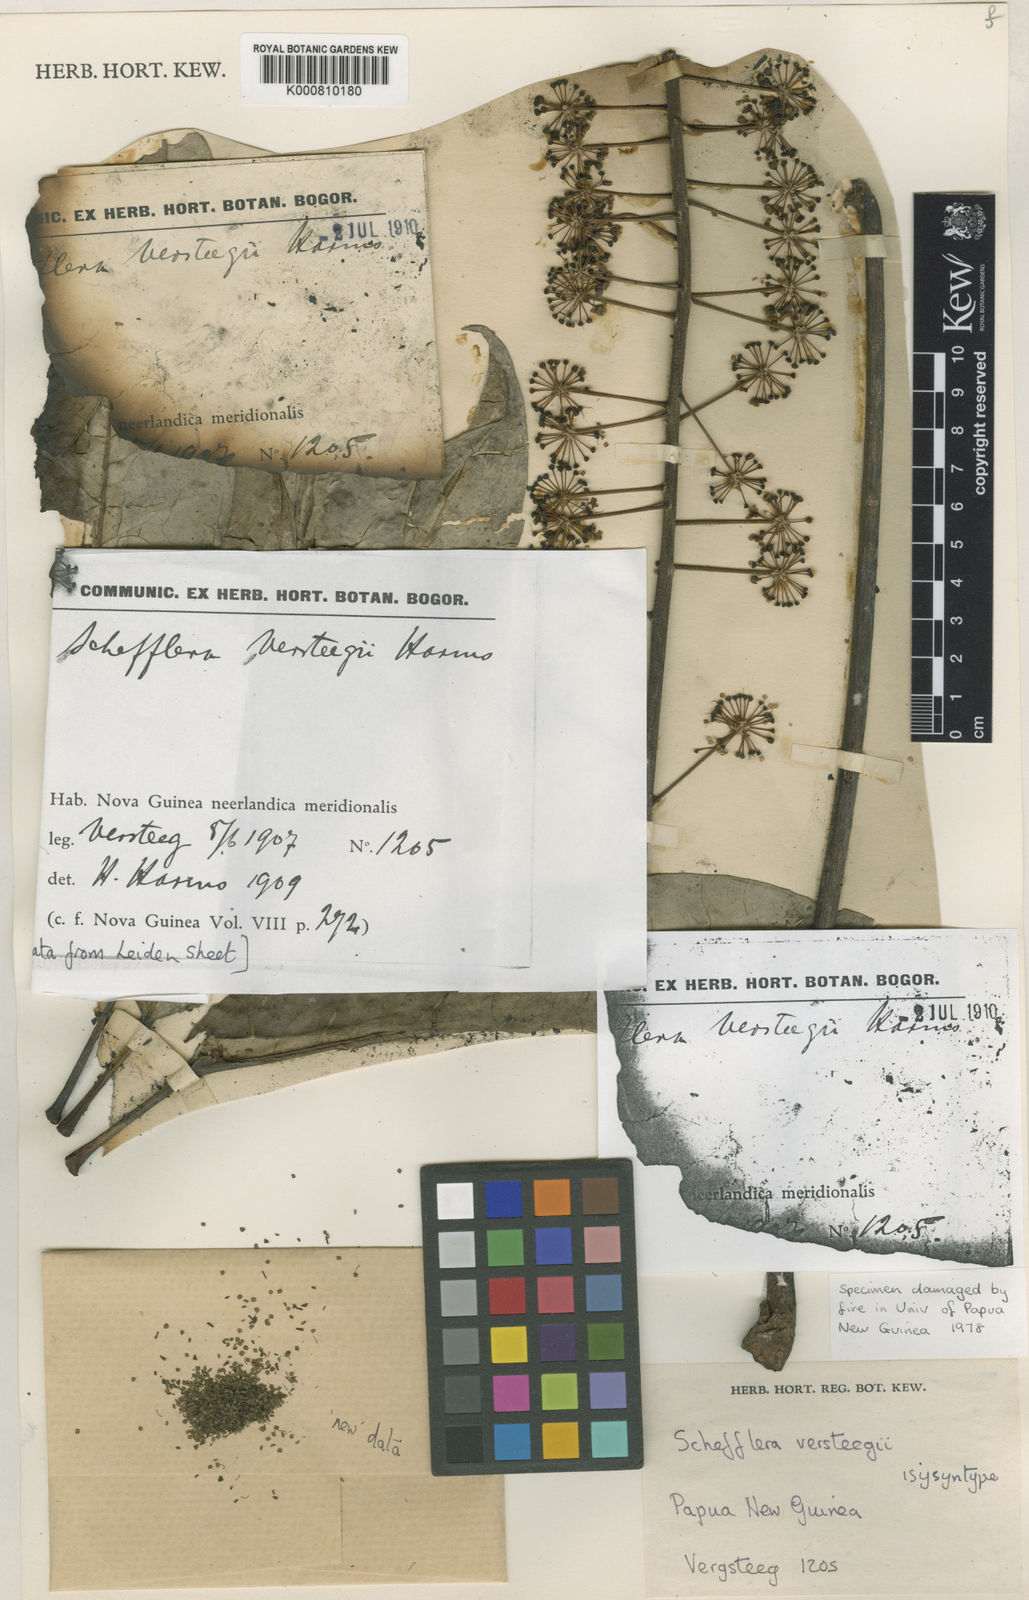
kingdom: Plantae
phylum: Tracheophyta
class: Magnoliopsida
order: Apiales
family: Araliaceae
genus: Heptapleurum
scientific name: Heptapleurum versteegii
